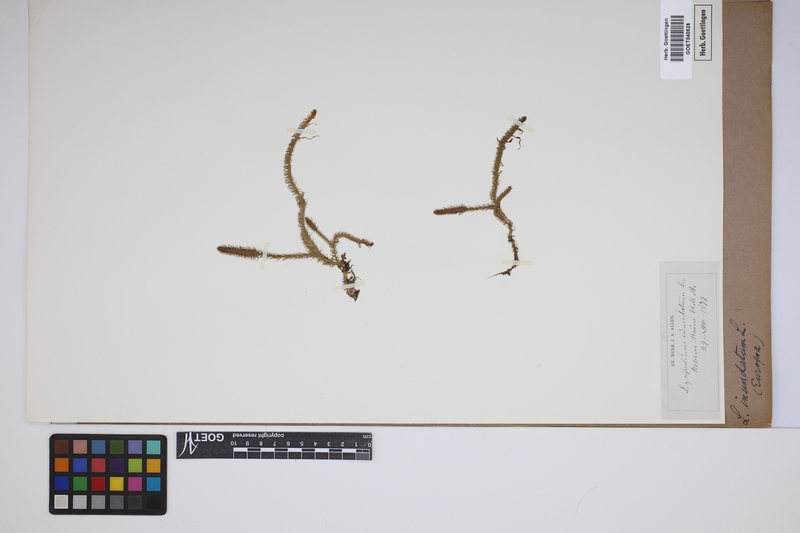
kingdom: Plantae
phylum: Tracheophyta
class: Lycopodiopsida
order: Lycopodiales
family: Lycopodiaceae
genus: Lycopodiella
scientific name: Lycopodiella inundata
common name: Marsh clubmoss
